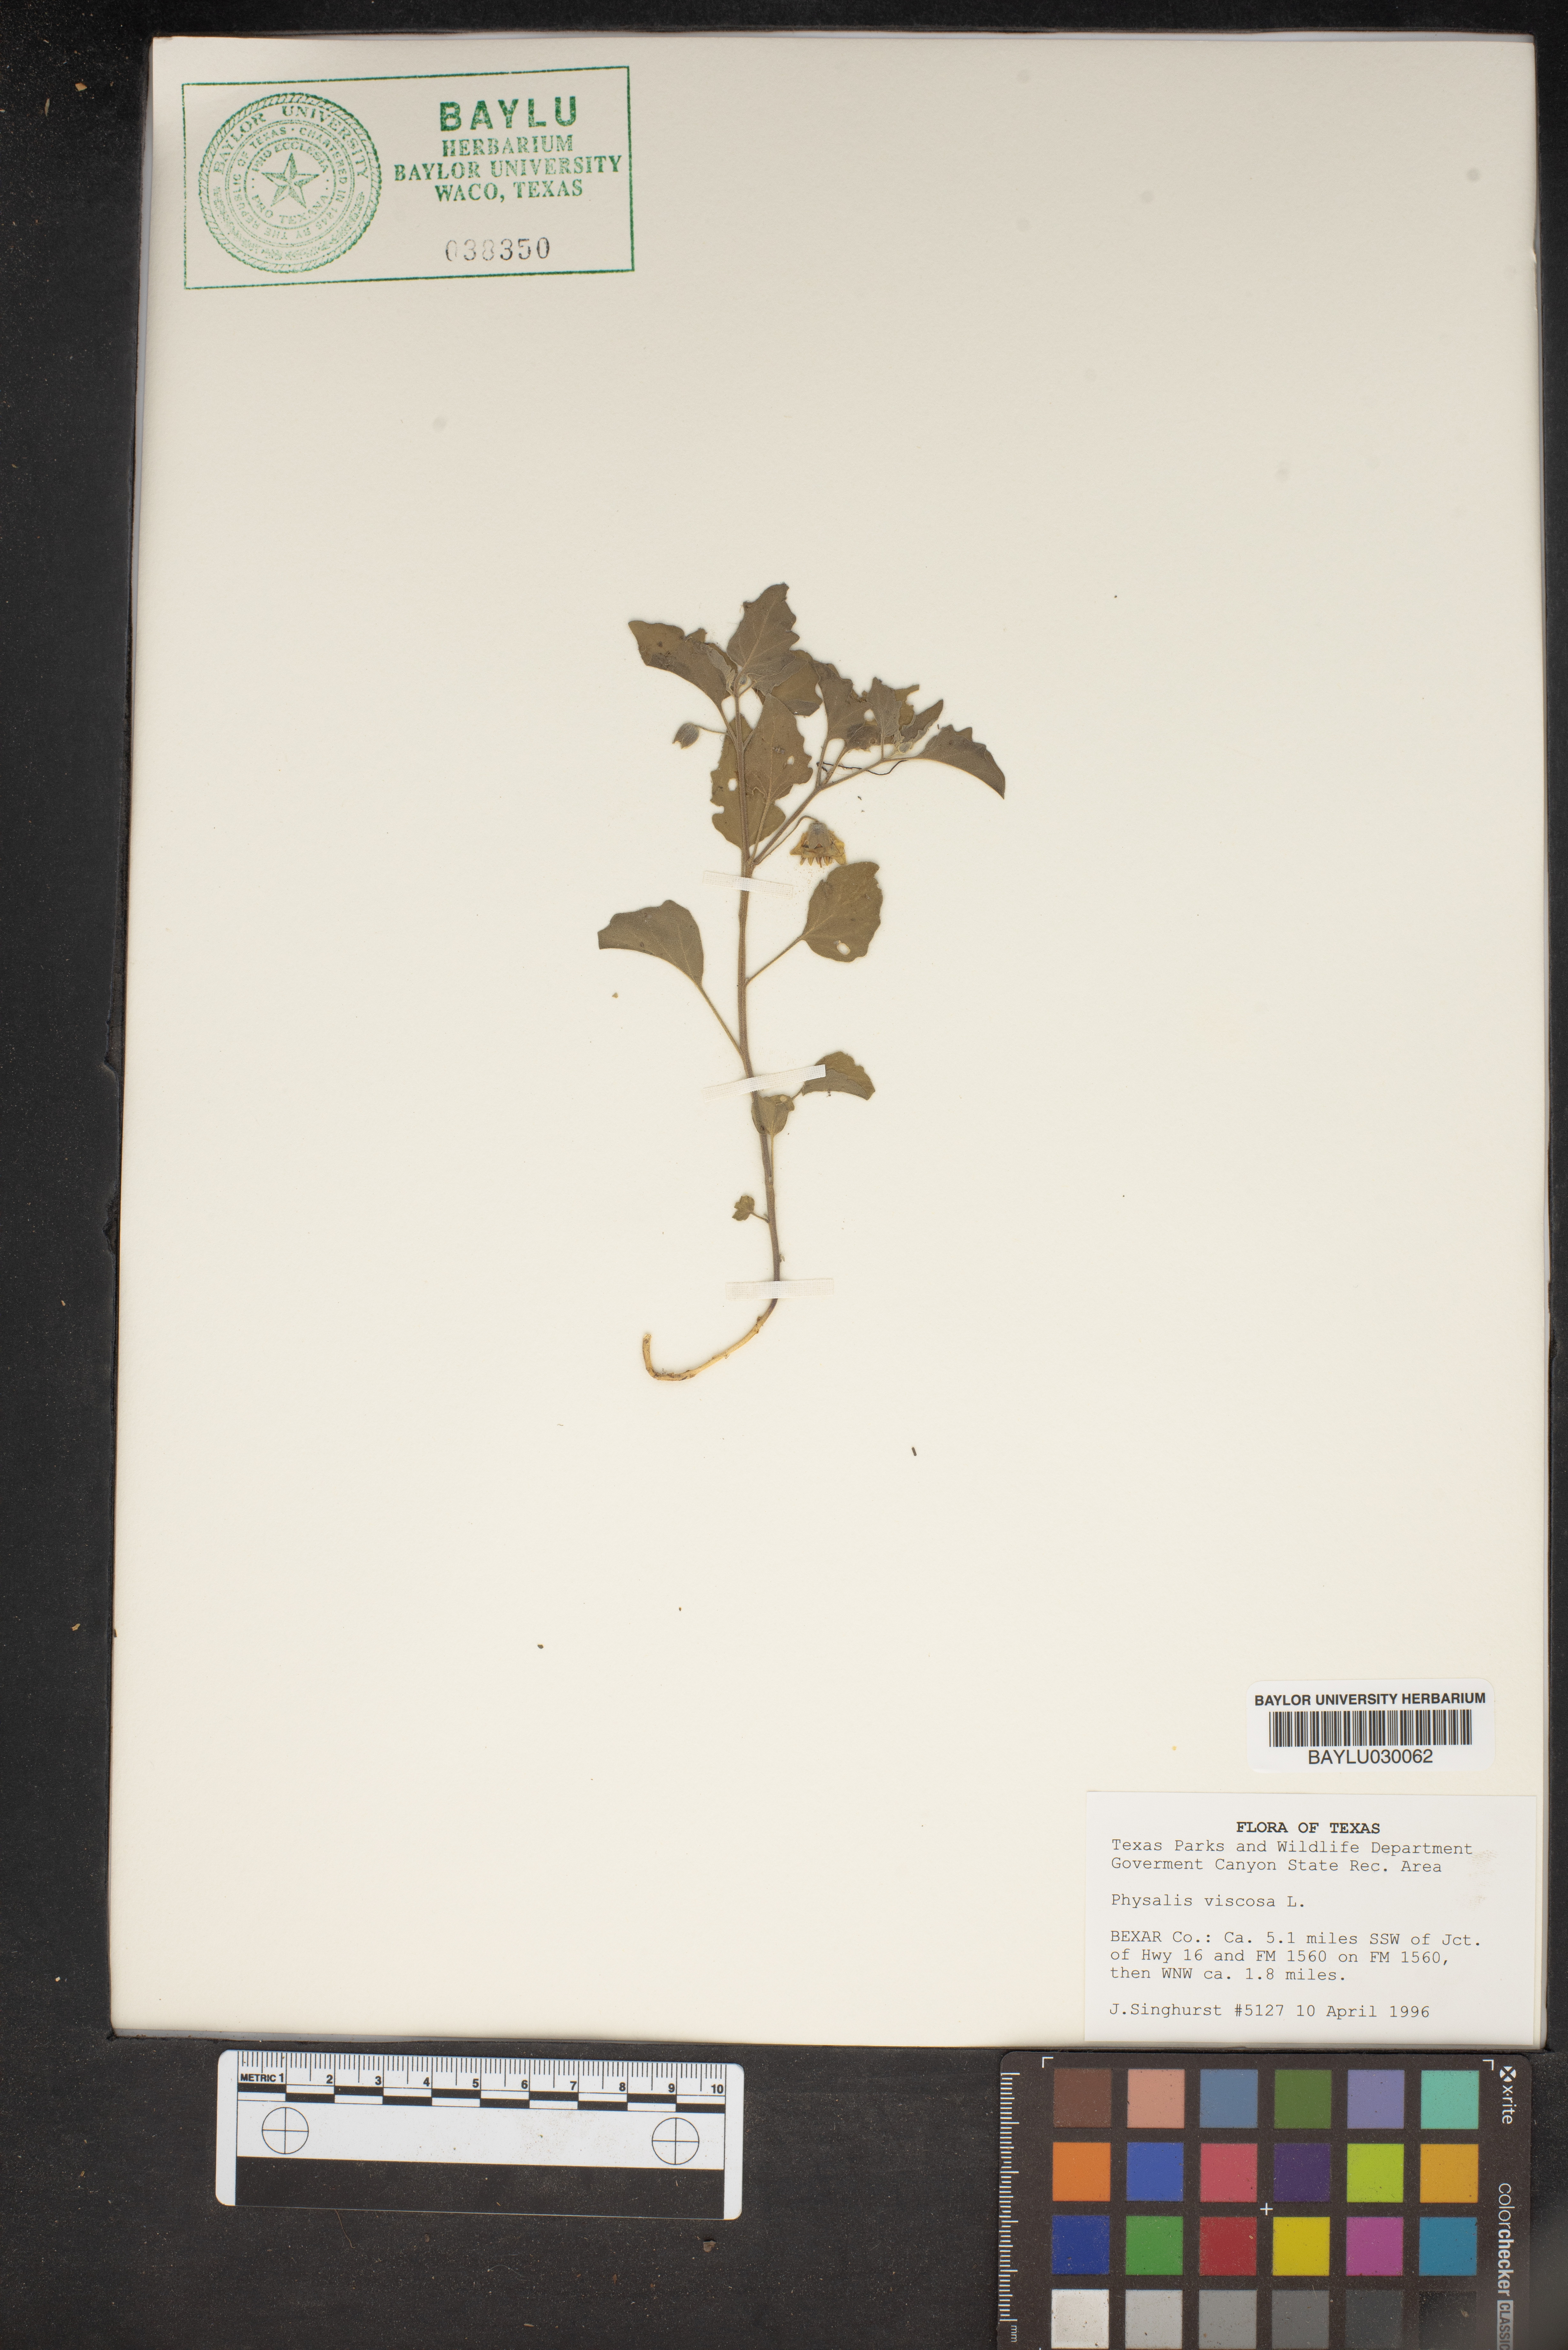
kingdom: Plantae
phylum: Tracheophyta
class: Magnoliopsida
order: Solanales
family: Solanaceae
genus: Physalis
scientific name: Physalis viscosa
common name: Stellate ground-cherry
